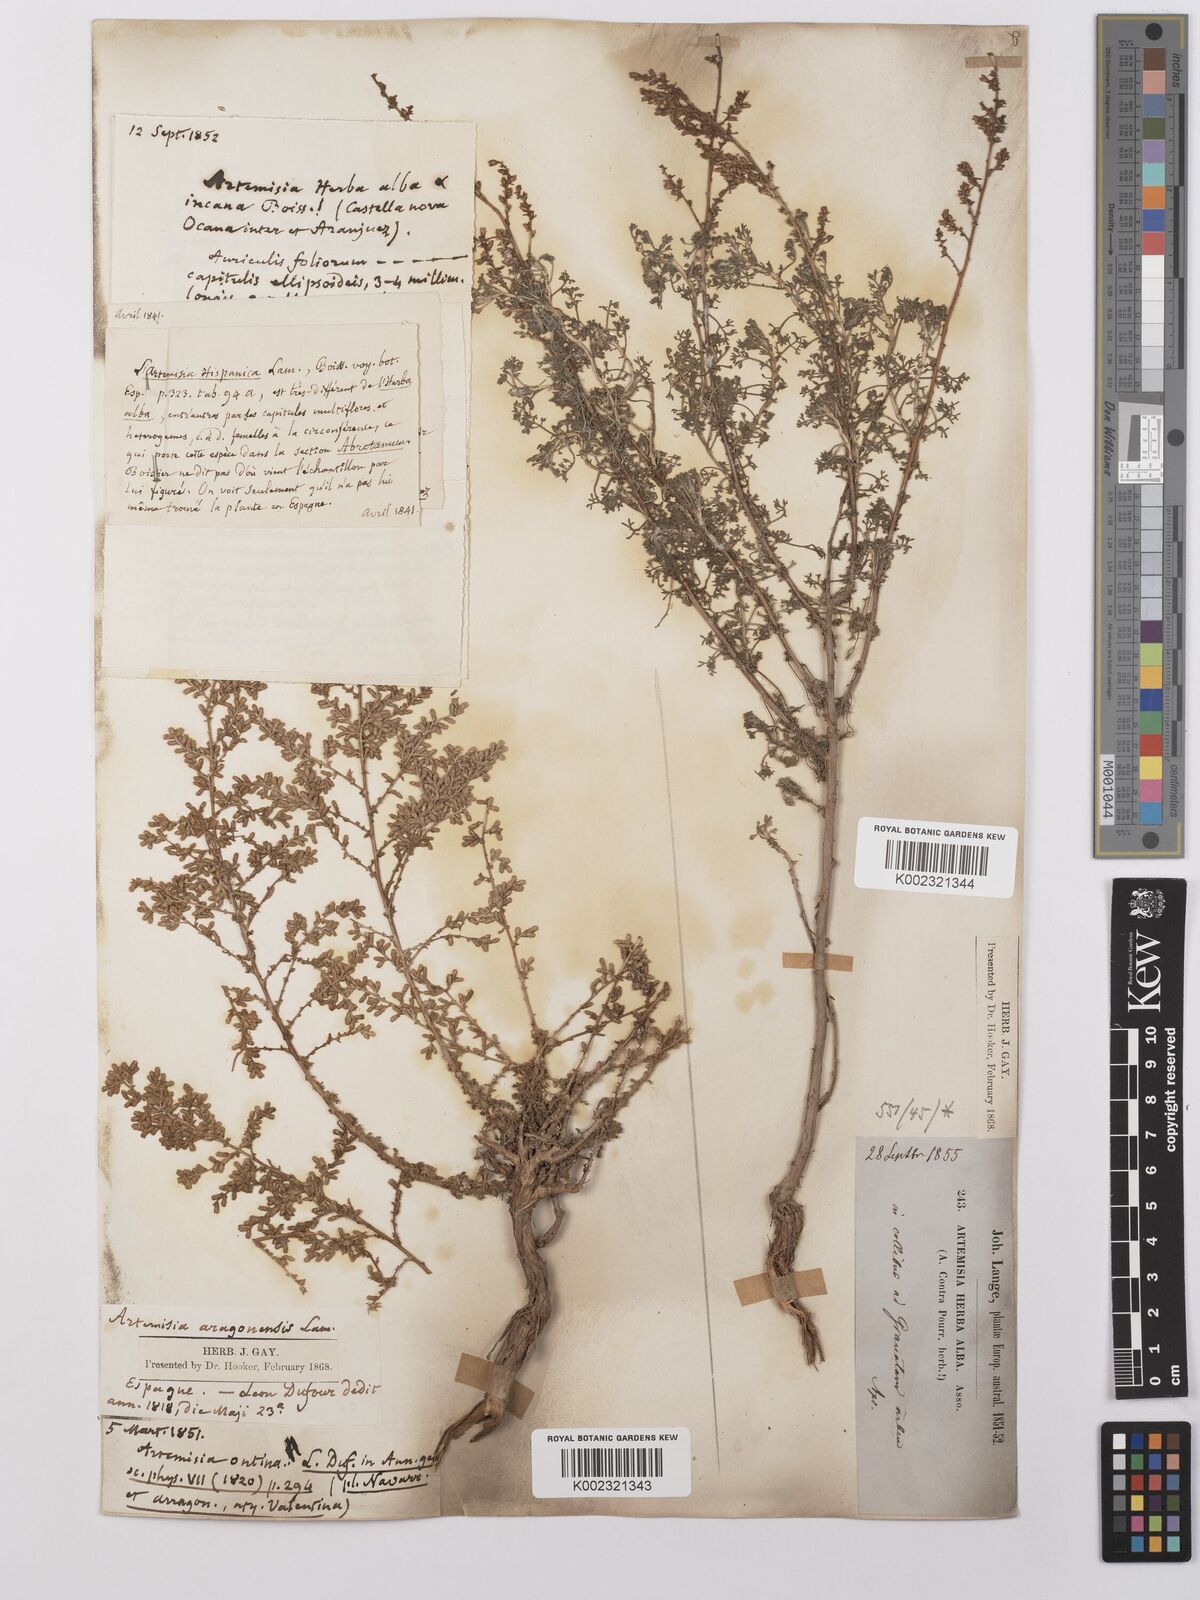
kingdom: Plantae
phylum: Tracheophyta
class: Magnoliopsida
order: Asterales
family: Asteraceae
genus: Artemisia
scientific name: Artemisia herba-alba
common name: White wormwood
